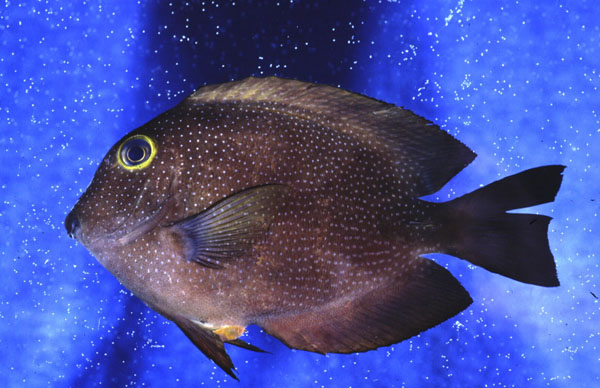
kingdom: Animalia
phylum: Chordata
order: Perciformes
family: Acanthuridae
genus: Ctenochaetus
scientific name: Ctenochaetus truncatus
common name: Indian gold-ring bristle-tooth
